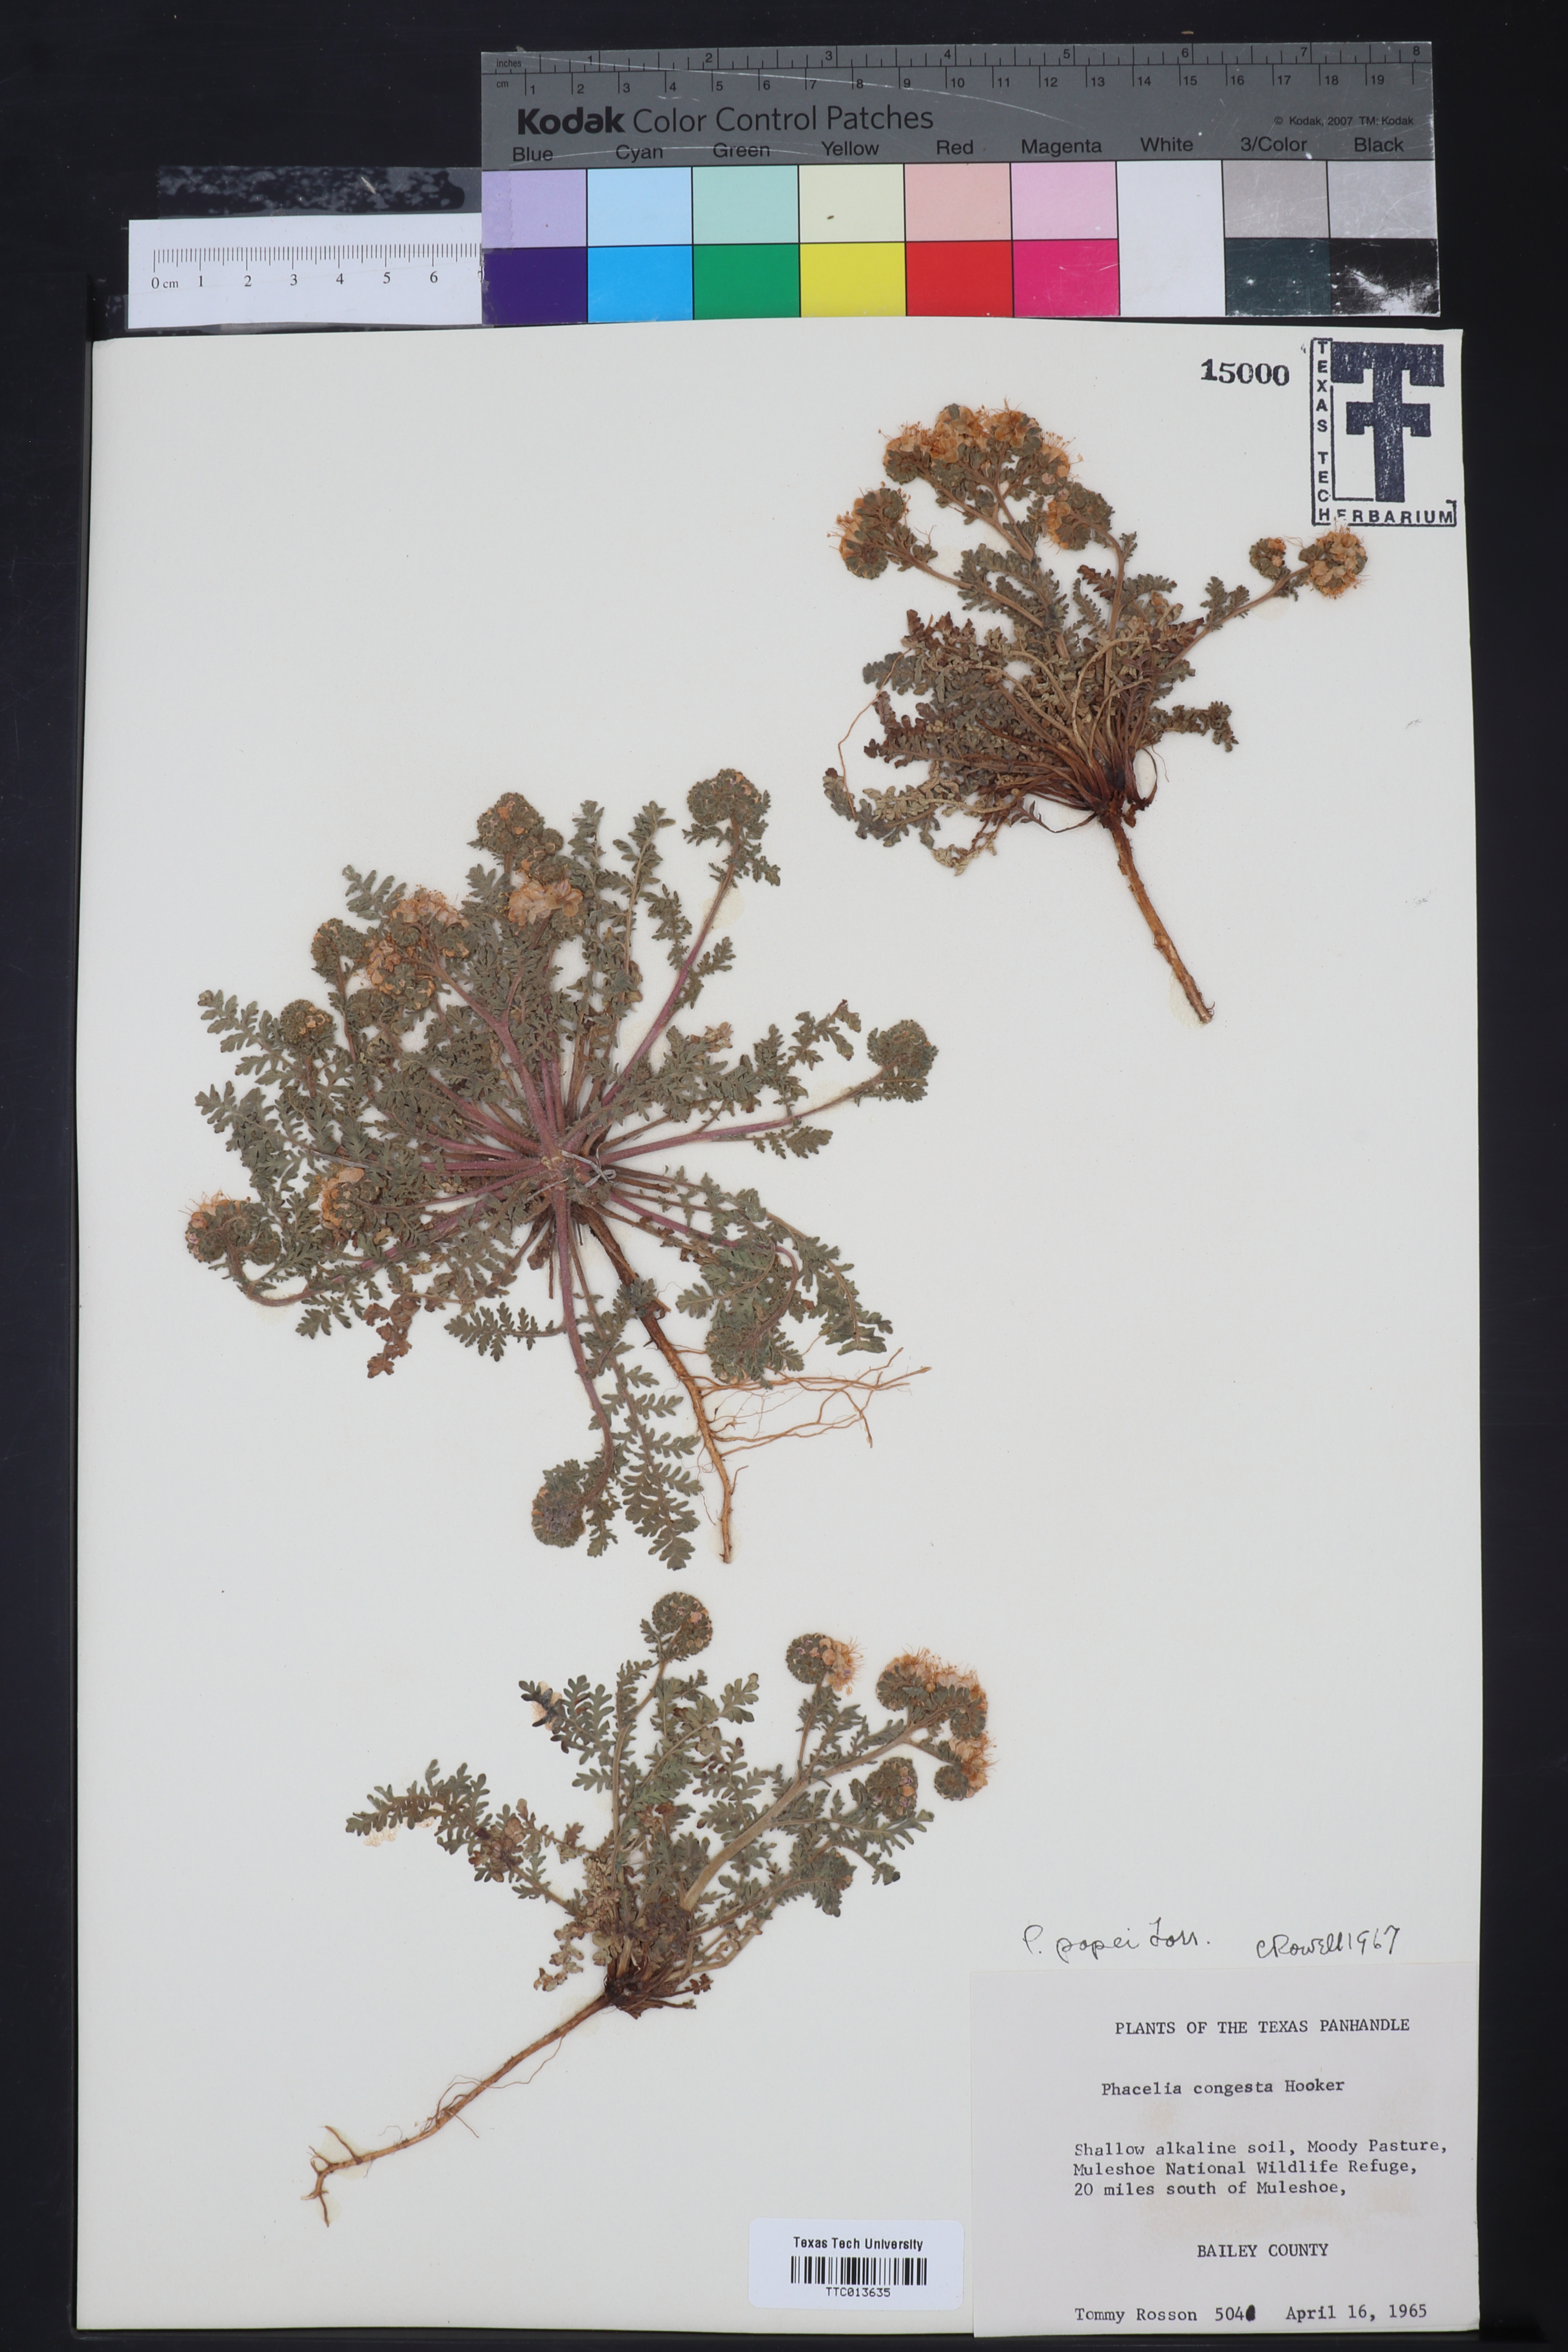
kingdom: Plantae
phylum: Tracheophyta
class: Magnoliopsida
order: Boraginales
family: Hydrophyllaceae
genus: Phacelia
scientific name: Phacelia popei
